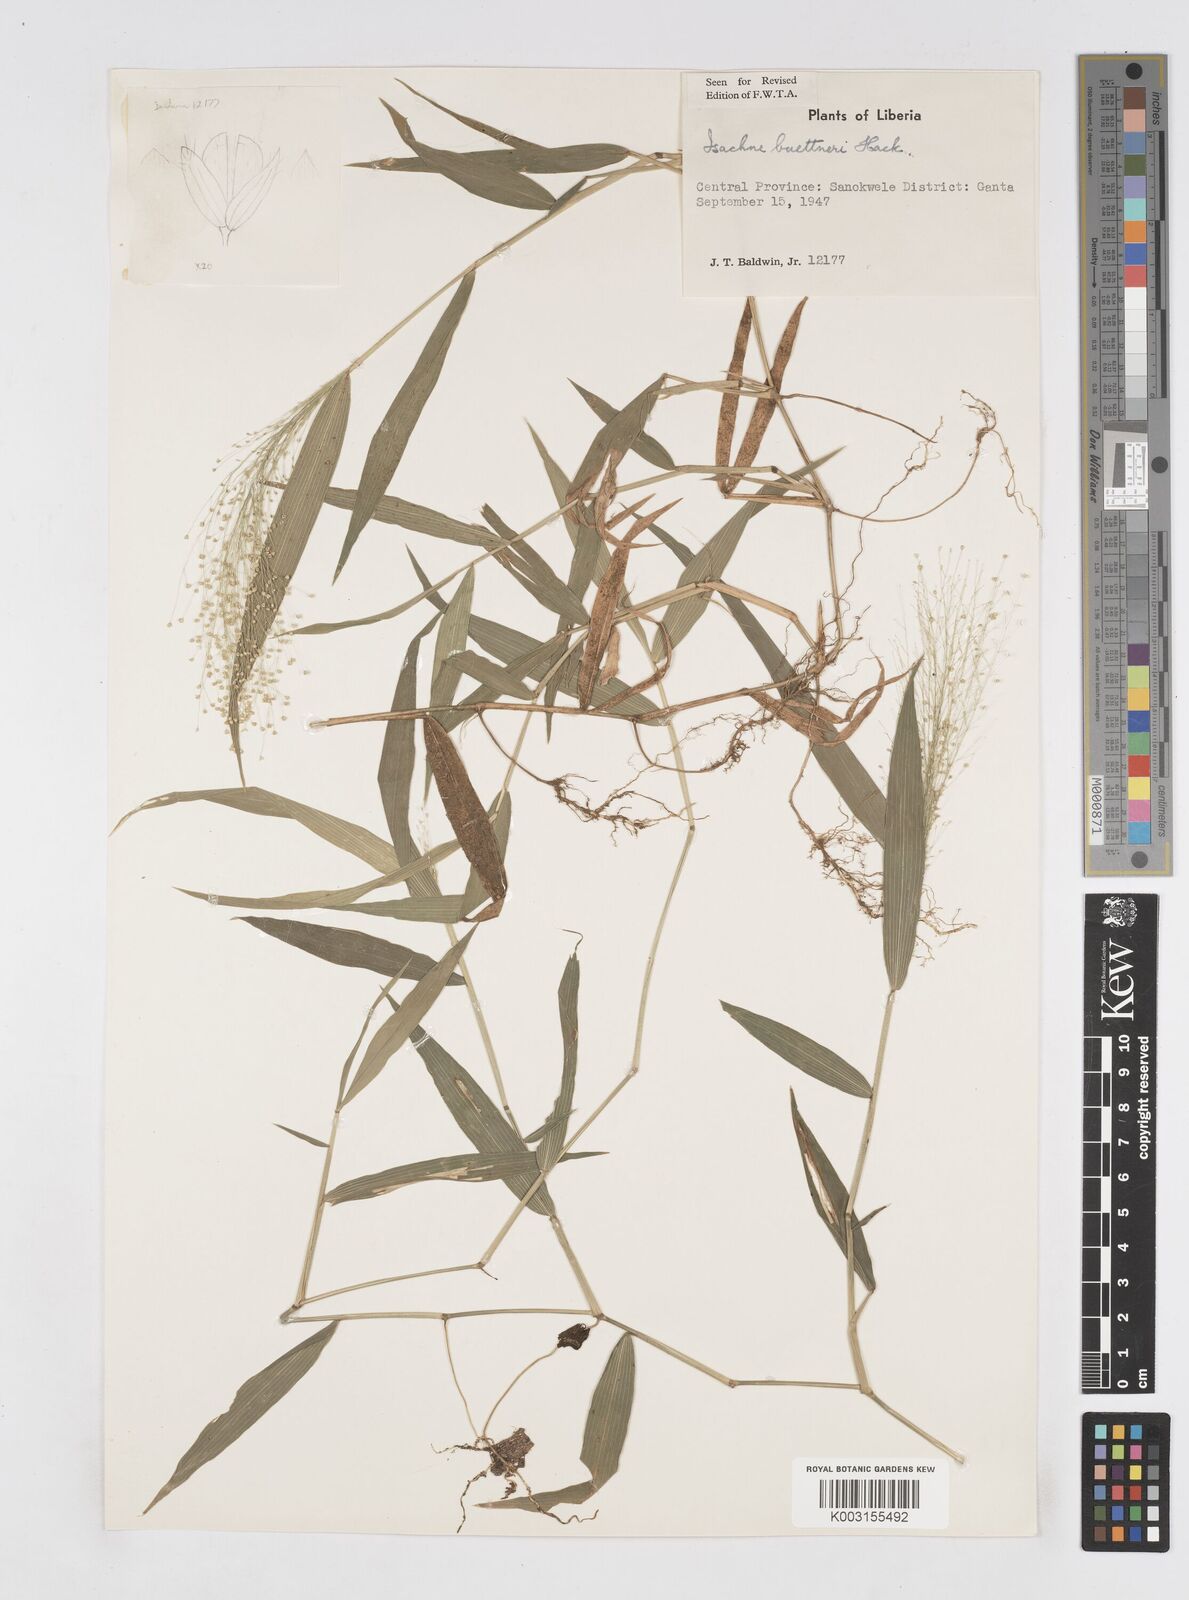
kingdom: Plantae
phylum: Tracheophyta
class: Liliopsida
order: Poales
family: Poaceae
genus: Isachne
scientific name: Isachne albens
